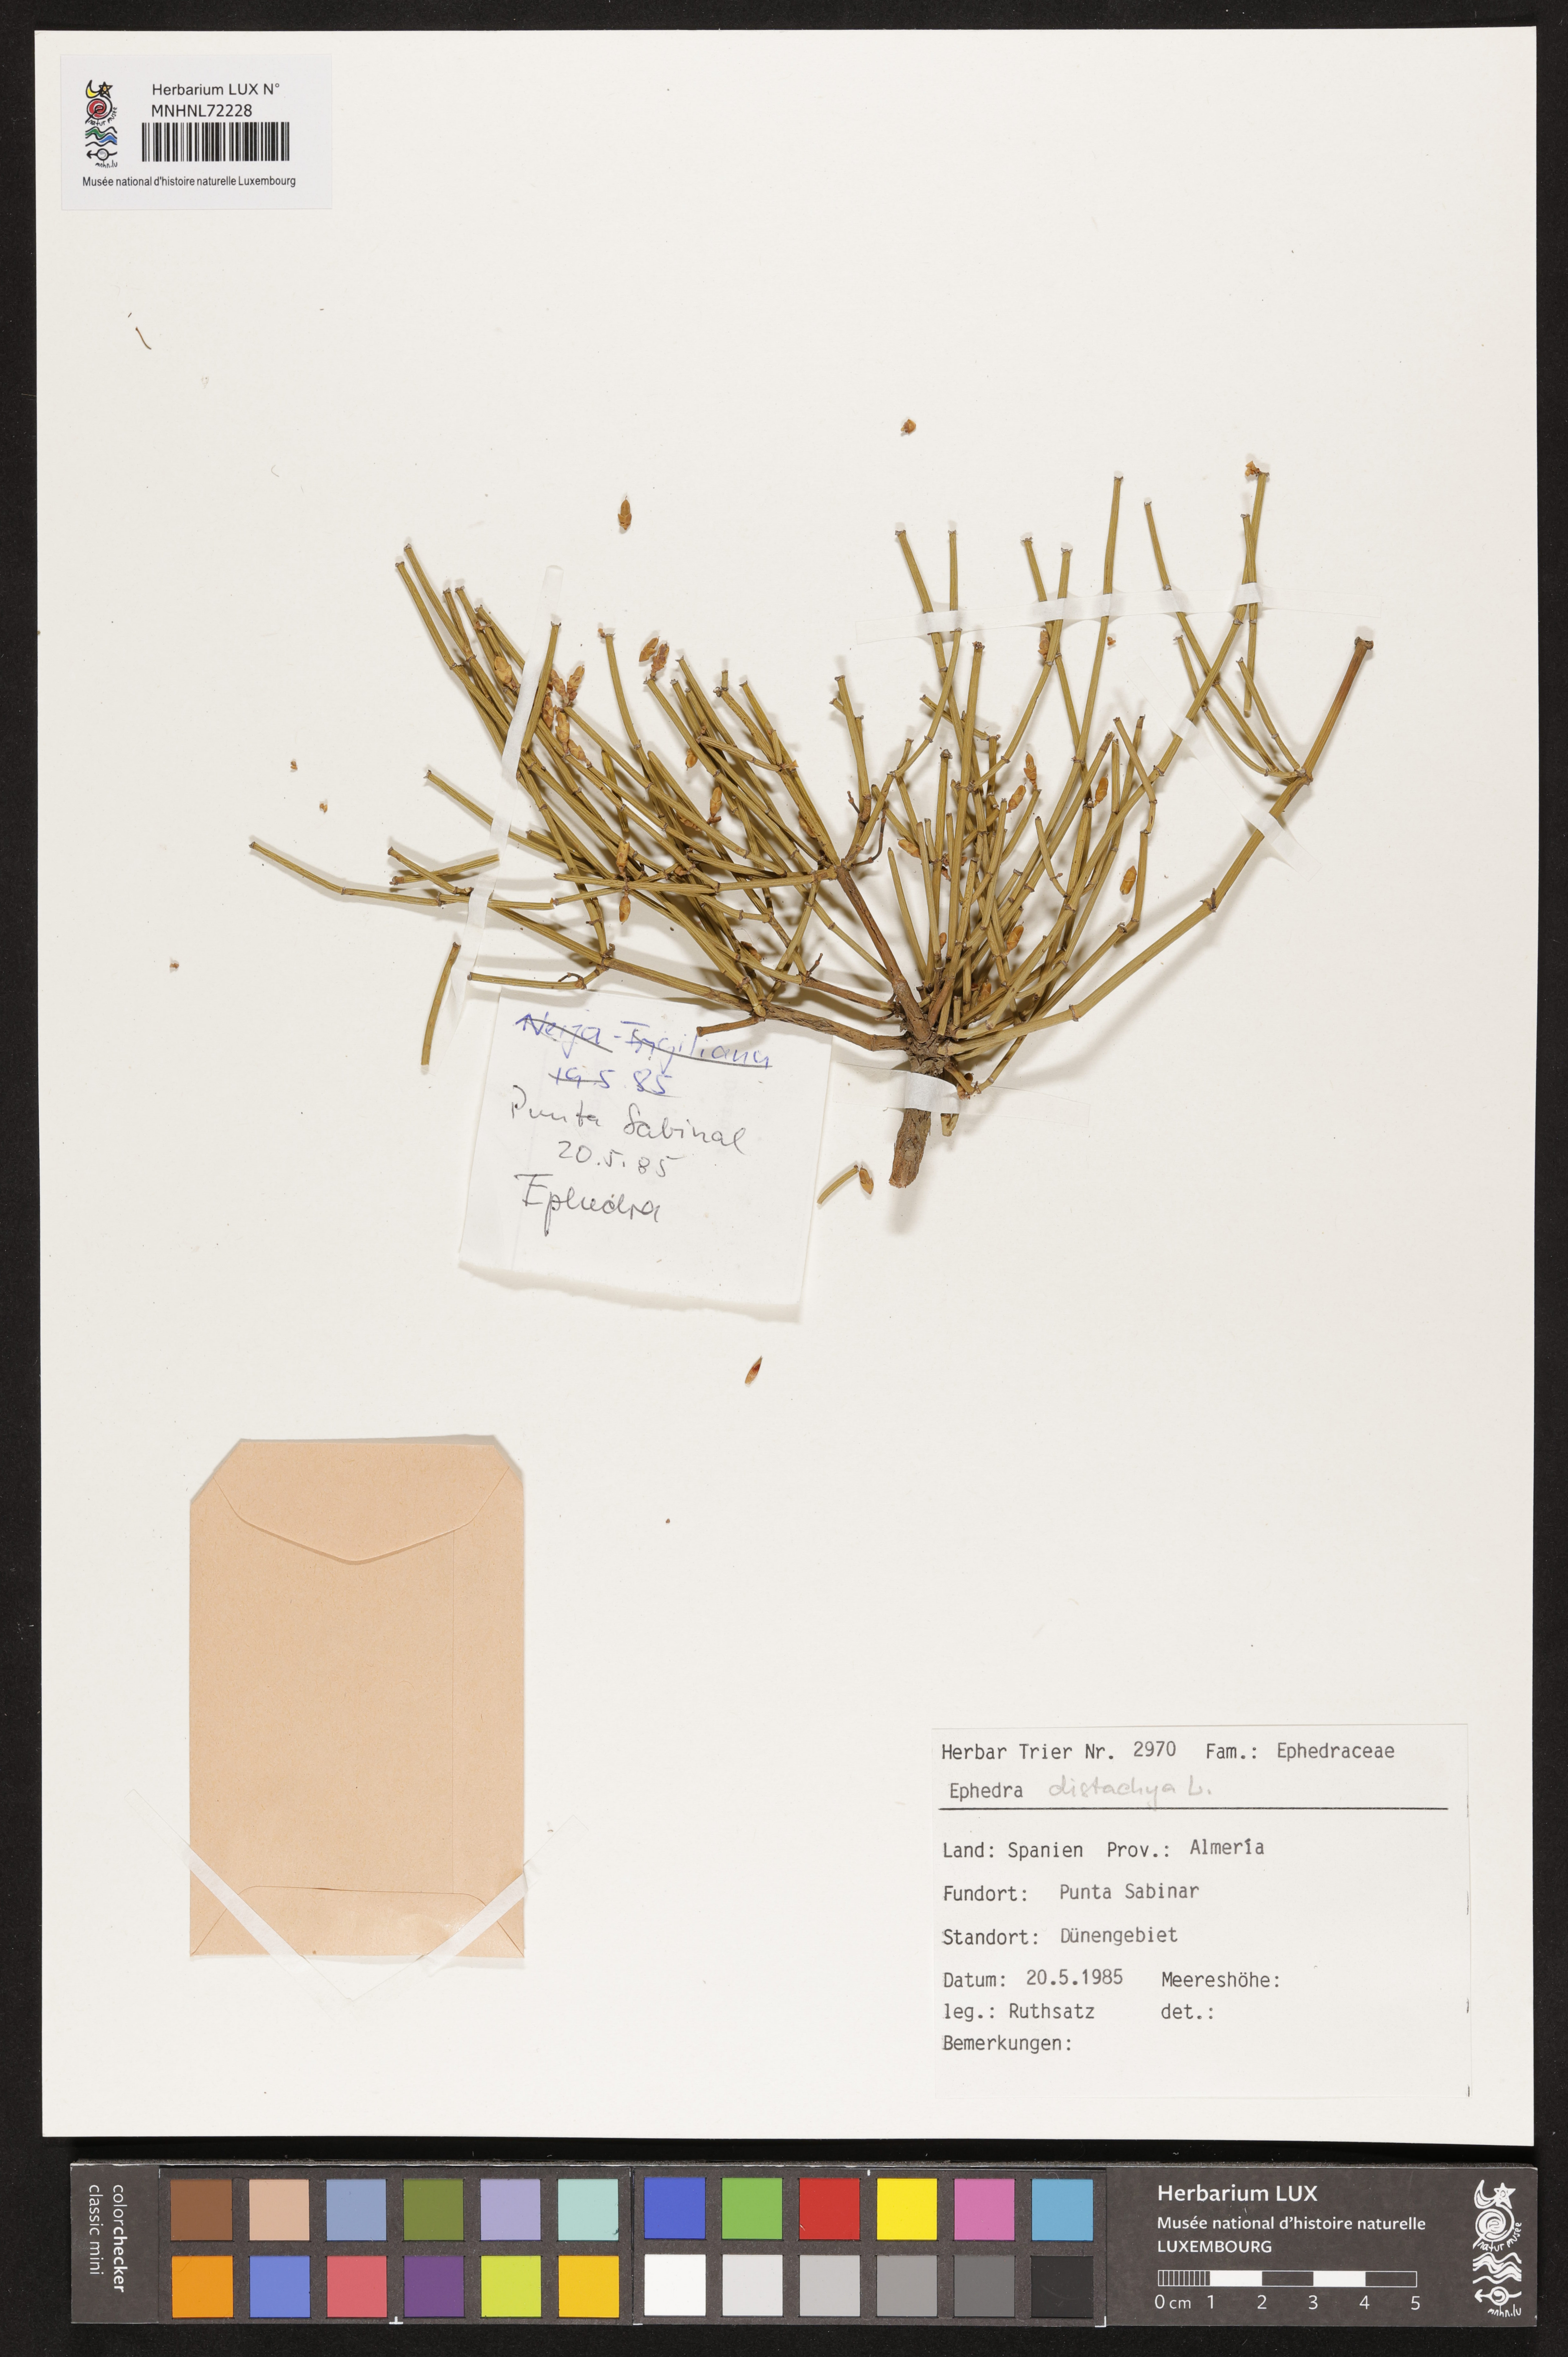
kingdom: Plantae
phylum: Tracheophyta
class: Gnetopsida
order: Ephedrales
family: Ephedraceae
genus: Ephedra
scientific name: Ephedra distachya
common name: Sea grape
